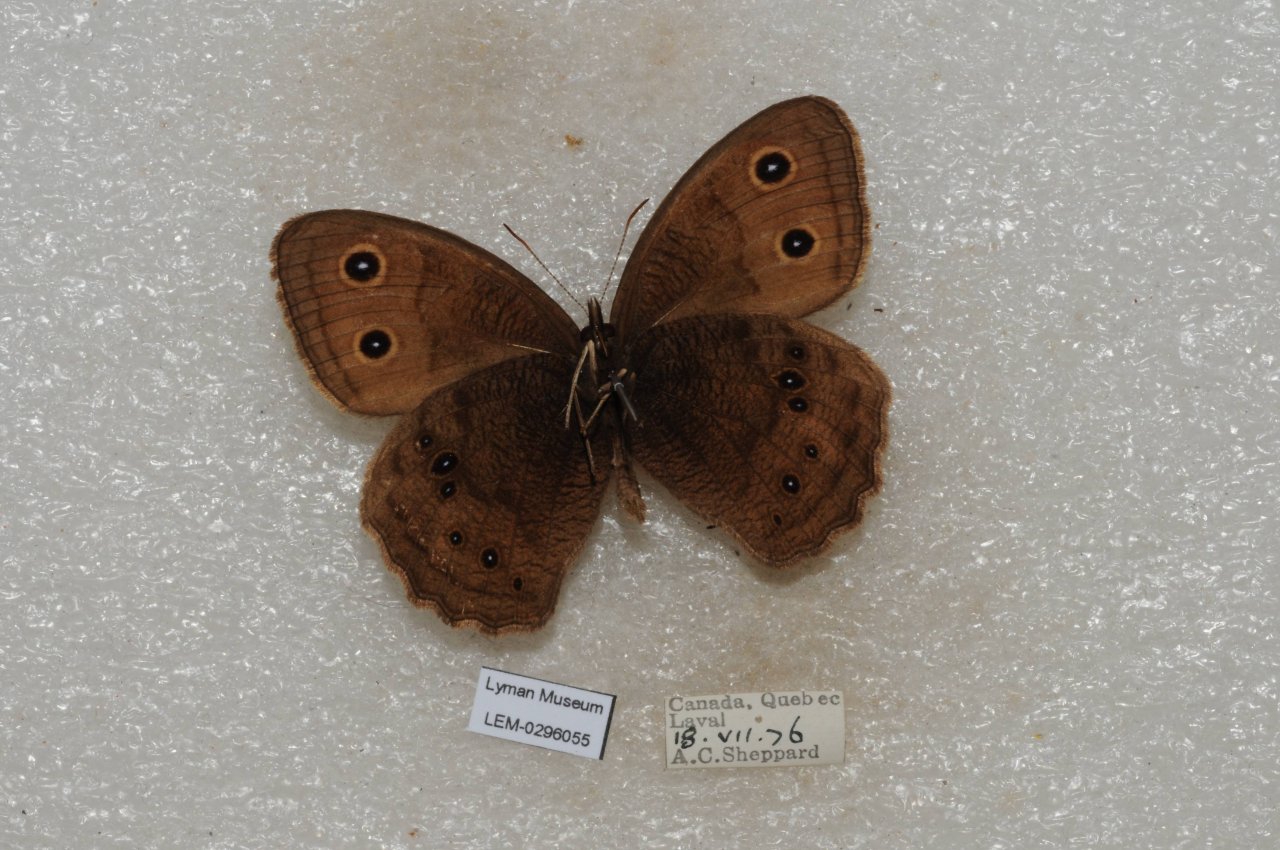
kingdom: Animalia
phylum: Arthropoda
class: Insecta
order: Lepidoptera
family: Nymphalidae
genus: Cercyonis
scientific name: Cercyonis pegala
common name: Common Wood-Nymph
